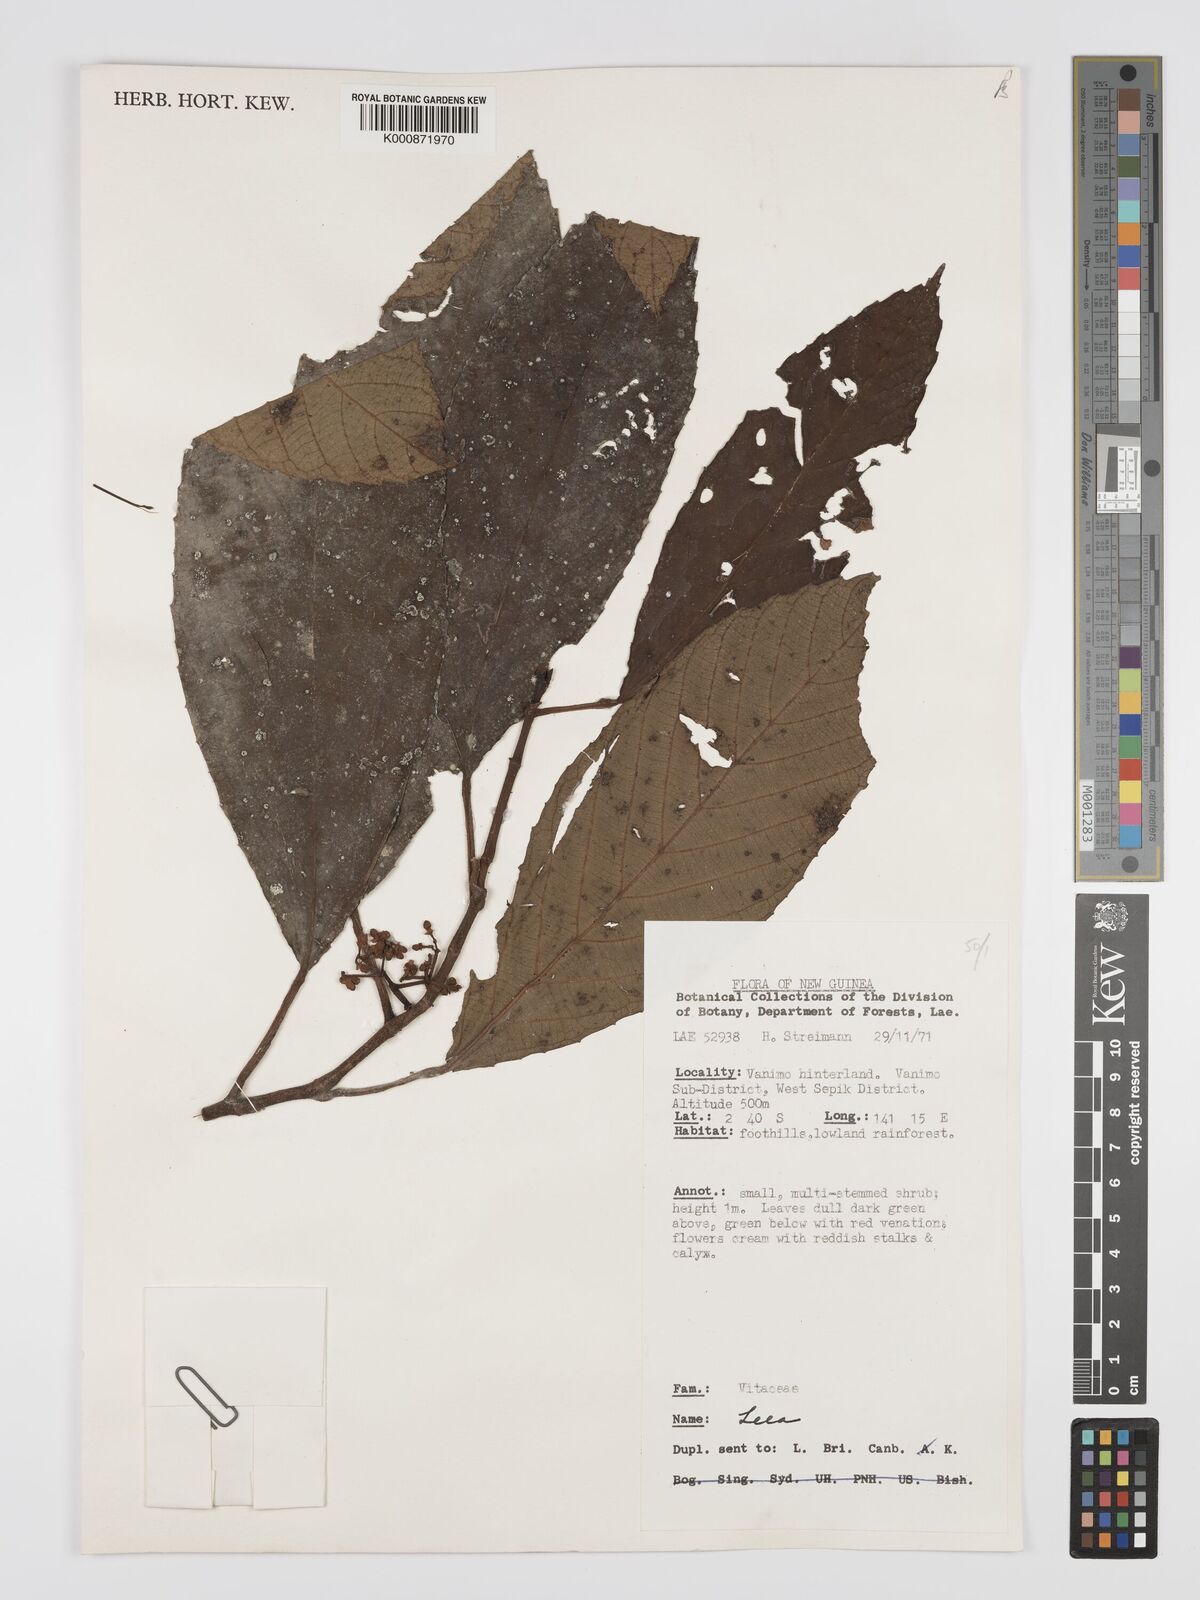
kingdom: Plantae
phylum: Tracheophyta
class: Magnoliopsida
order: Vitales
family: Vitaceae
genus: Leea
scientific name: Leea
